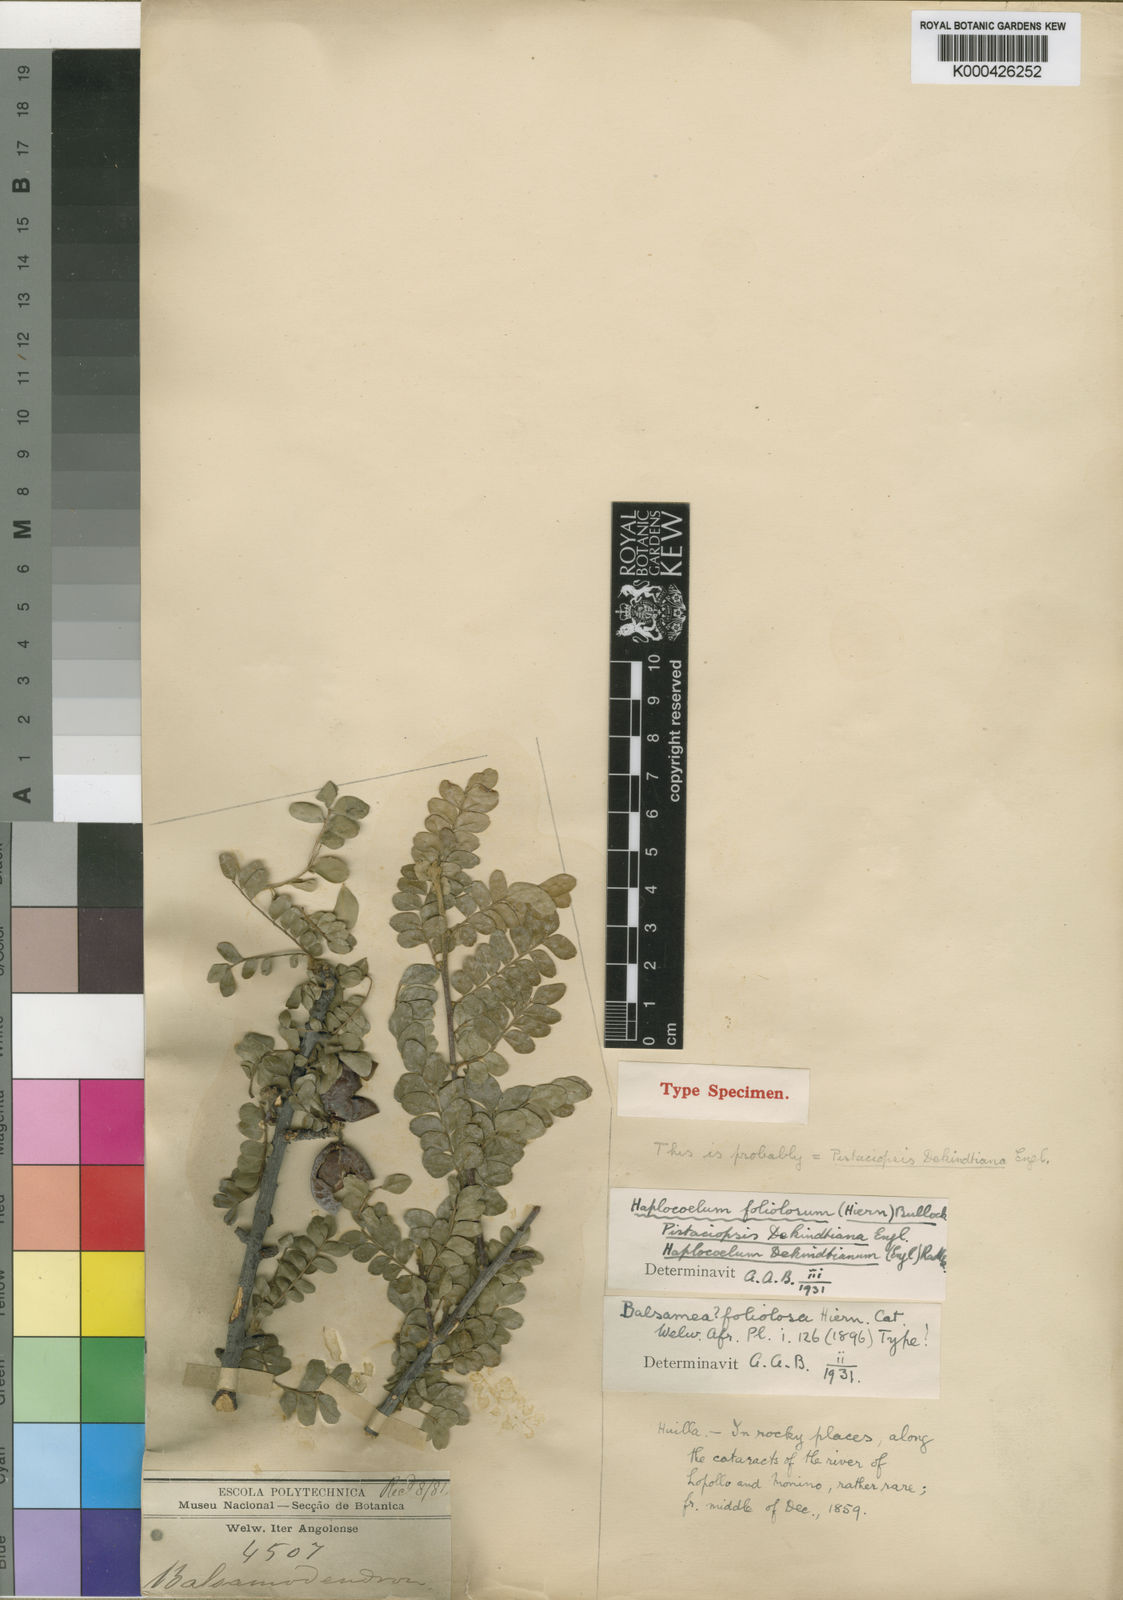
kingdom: Plantae
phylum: Tracheophyta
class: Magnoliopsida
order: Sapindales
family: Sapindaceae
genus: Haplocoelum
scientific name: Haplocoelum foliolosum
